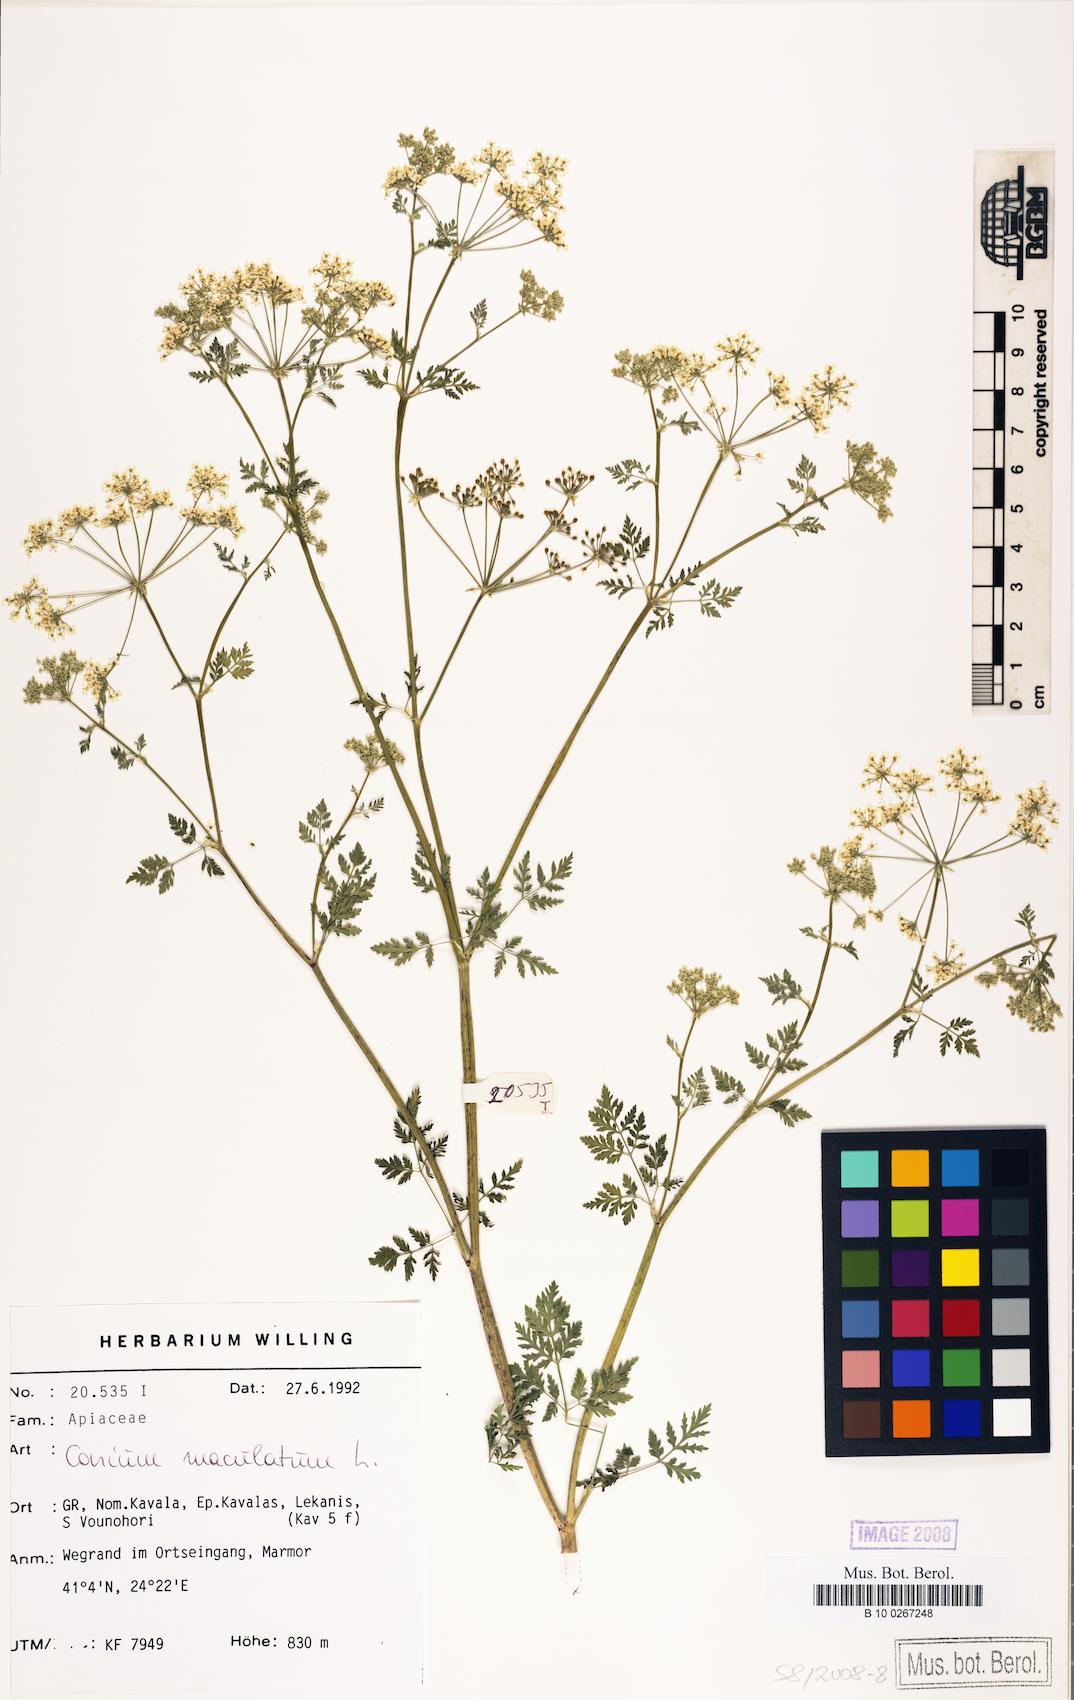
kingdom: Plantae
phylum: Tracheophyta
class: Magnoliopsida
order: Apiales
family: Apiaceae
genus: Conium
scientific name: Conium maculatum
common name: Hemlock
